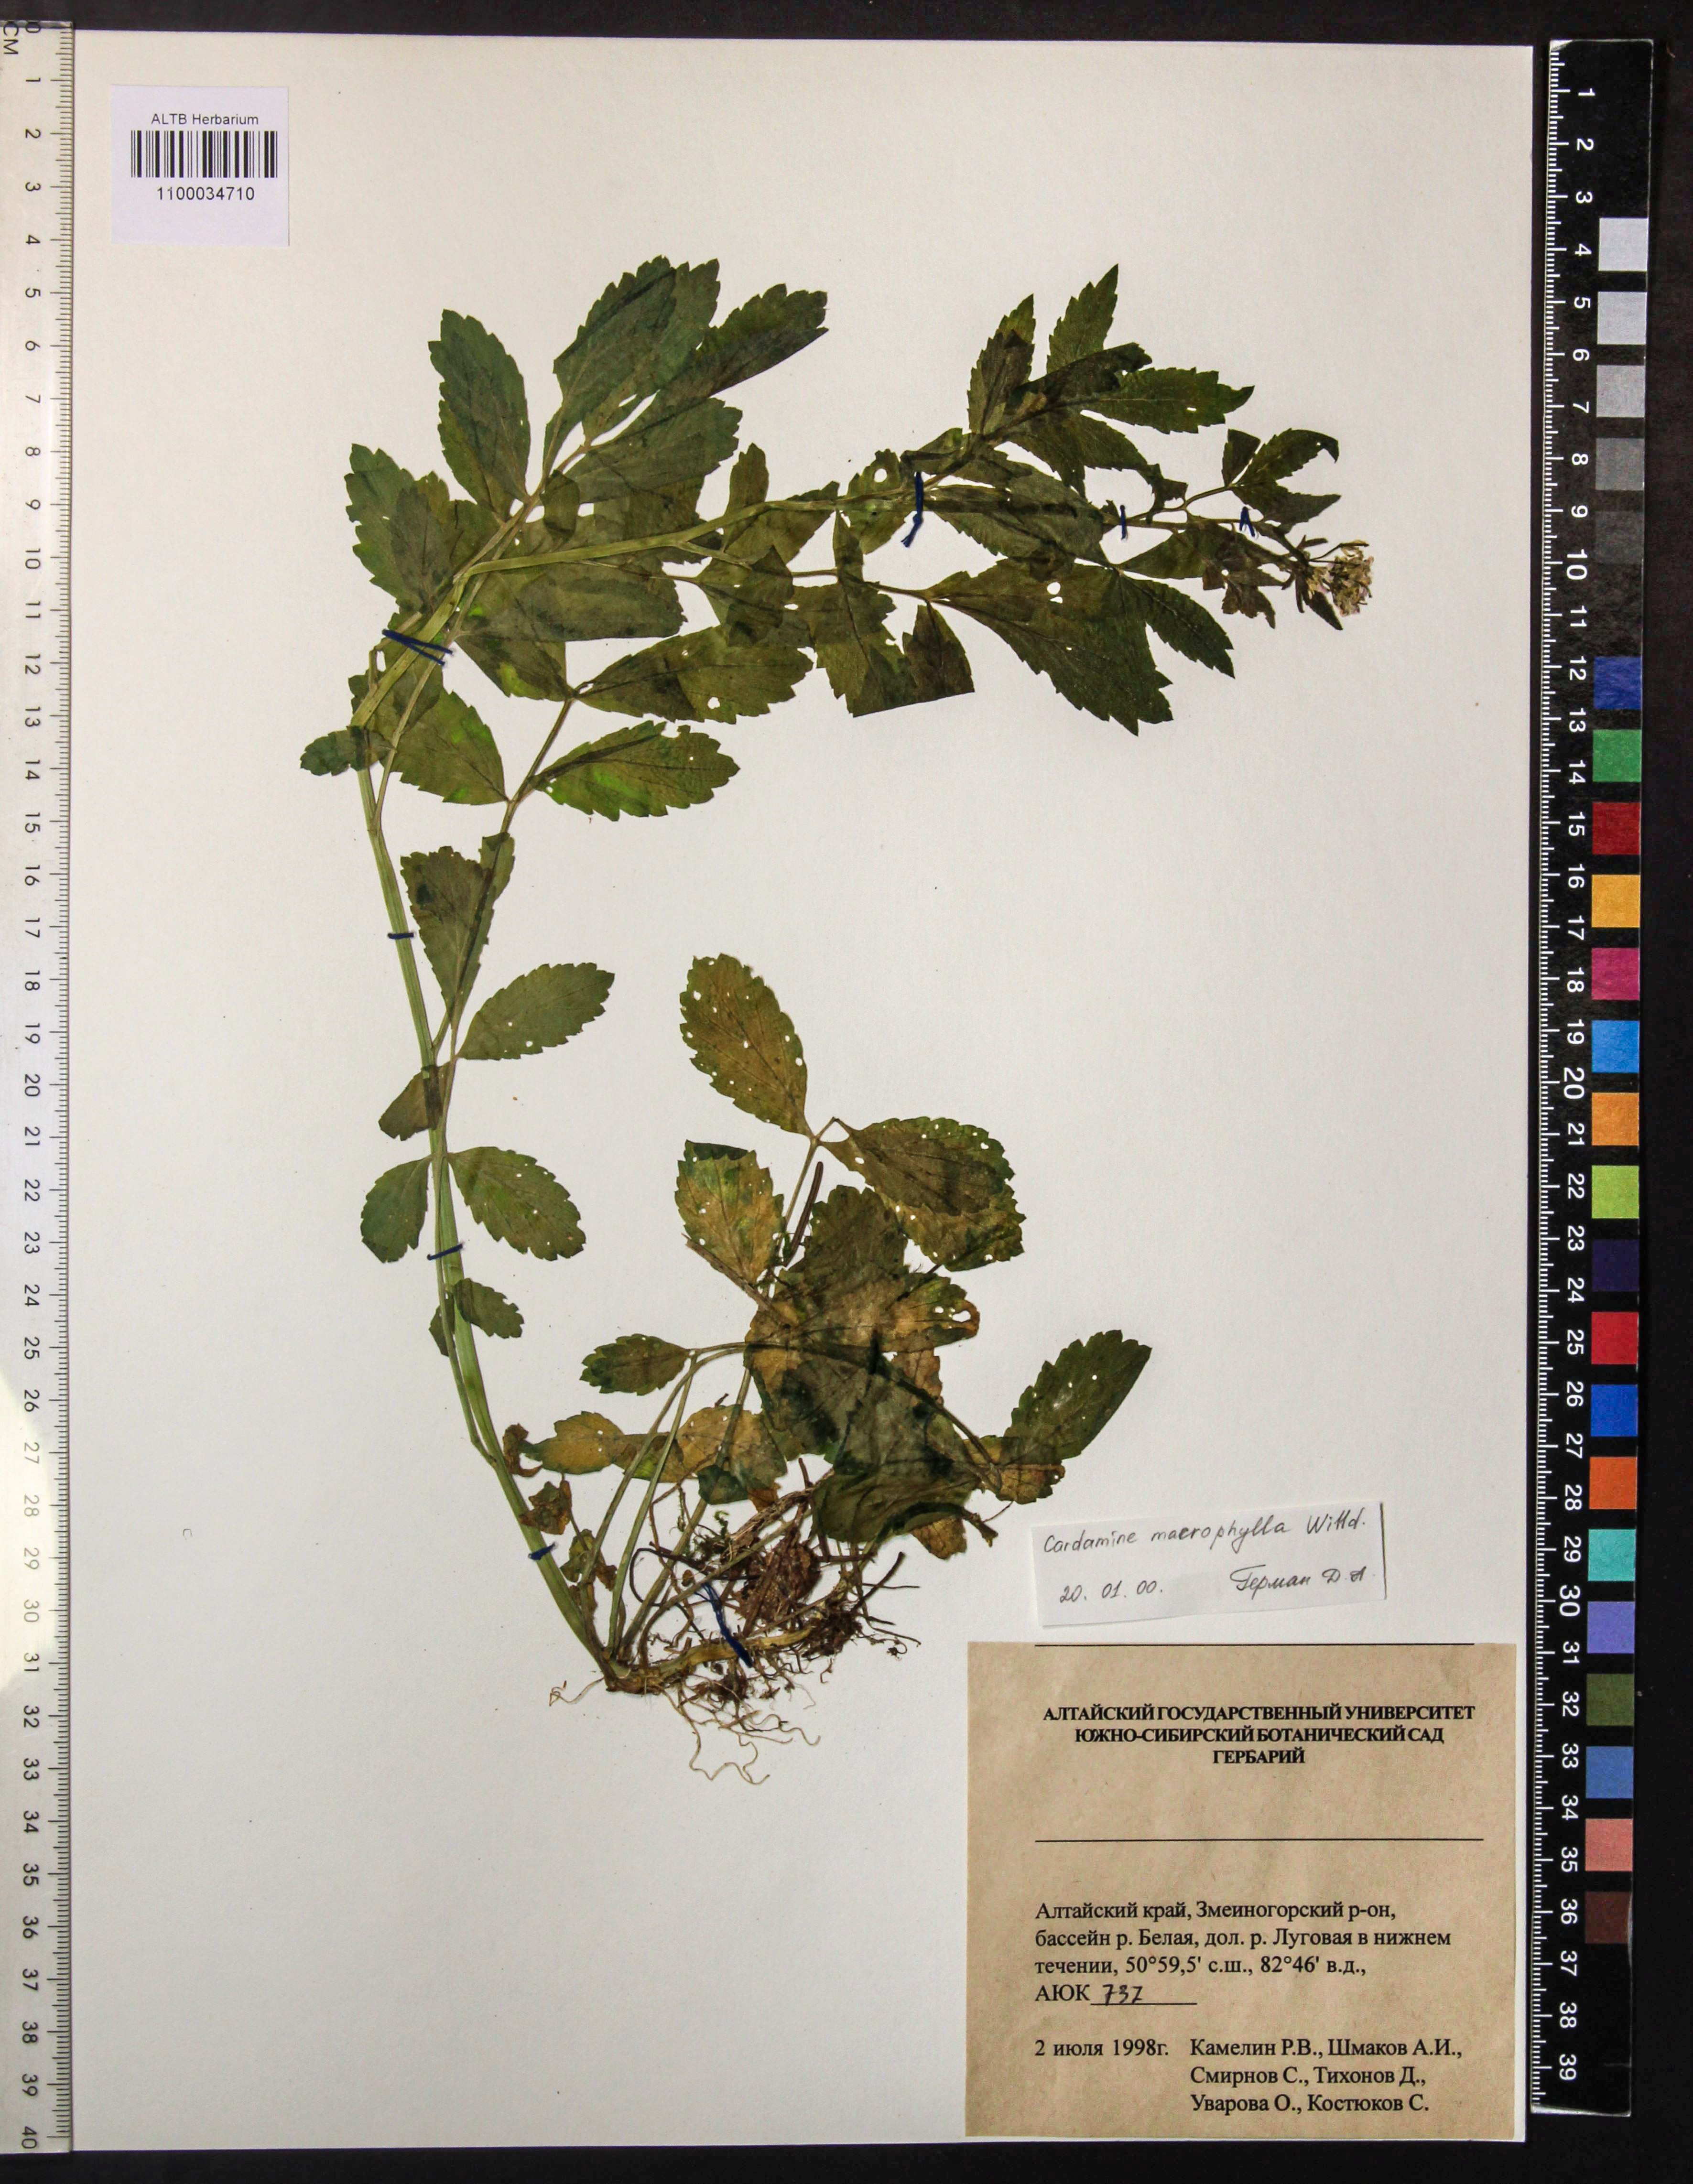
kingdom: Plantae
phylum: Tracheophyta
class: Magnoliopsida
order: Brassicales
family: Brassicaceae
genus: Cardamine
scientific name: Cardamine macrophylla
